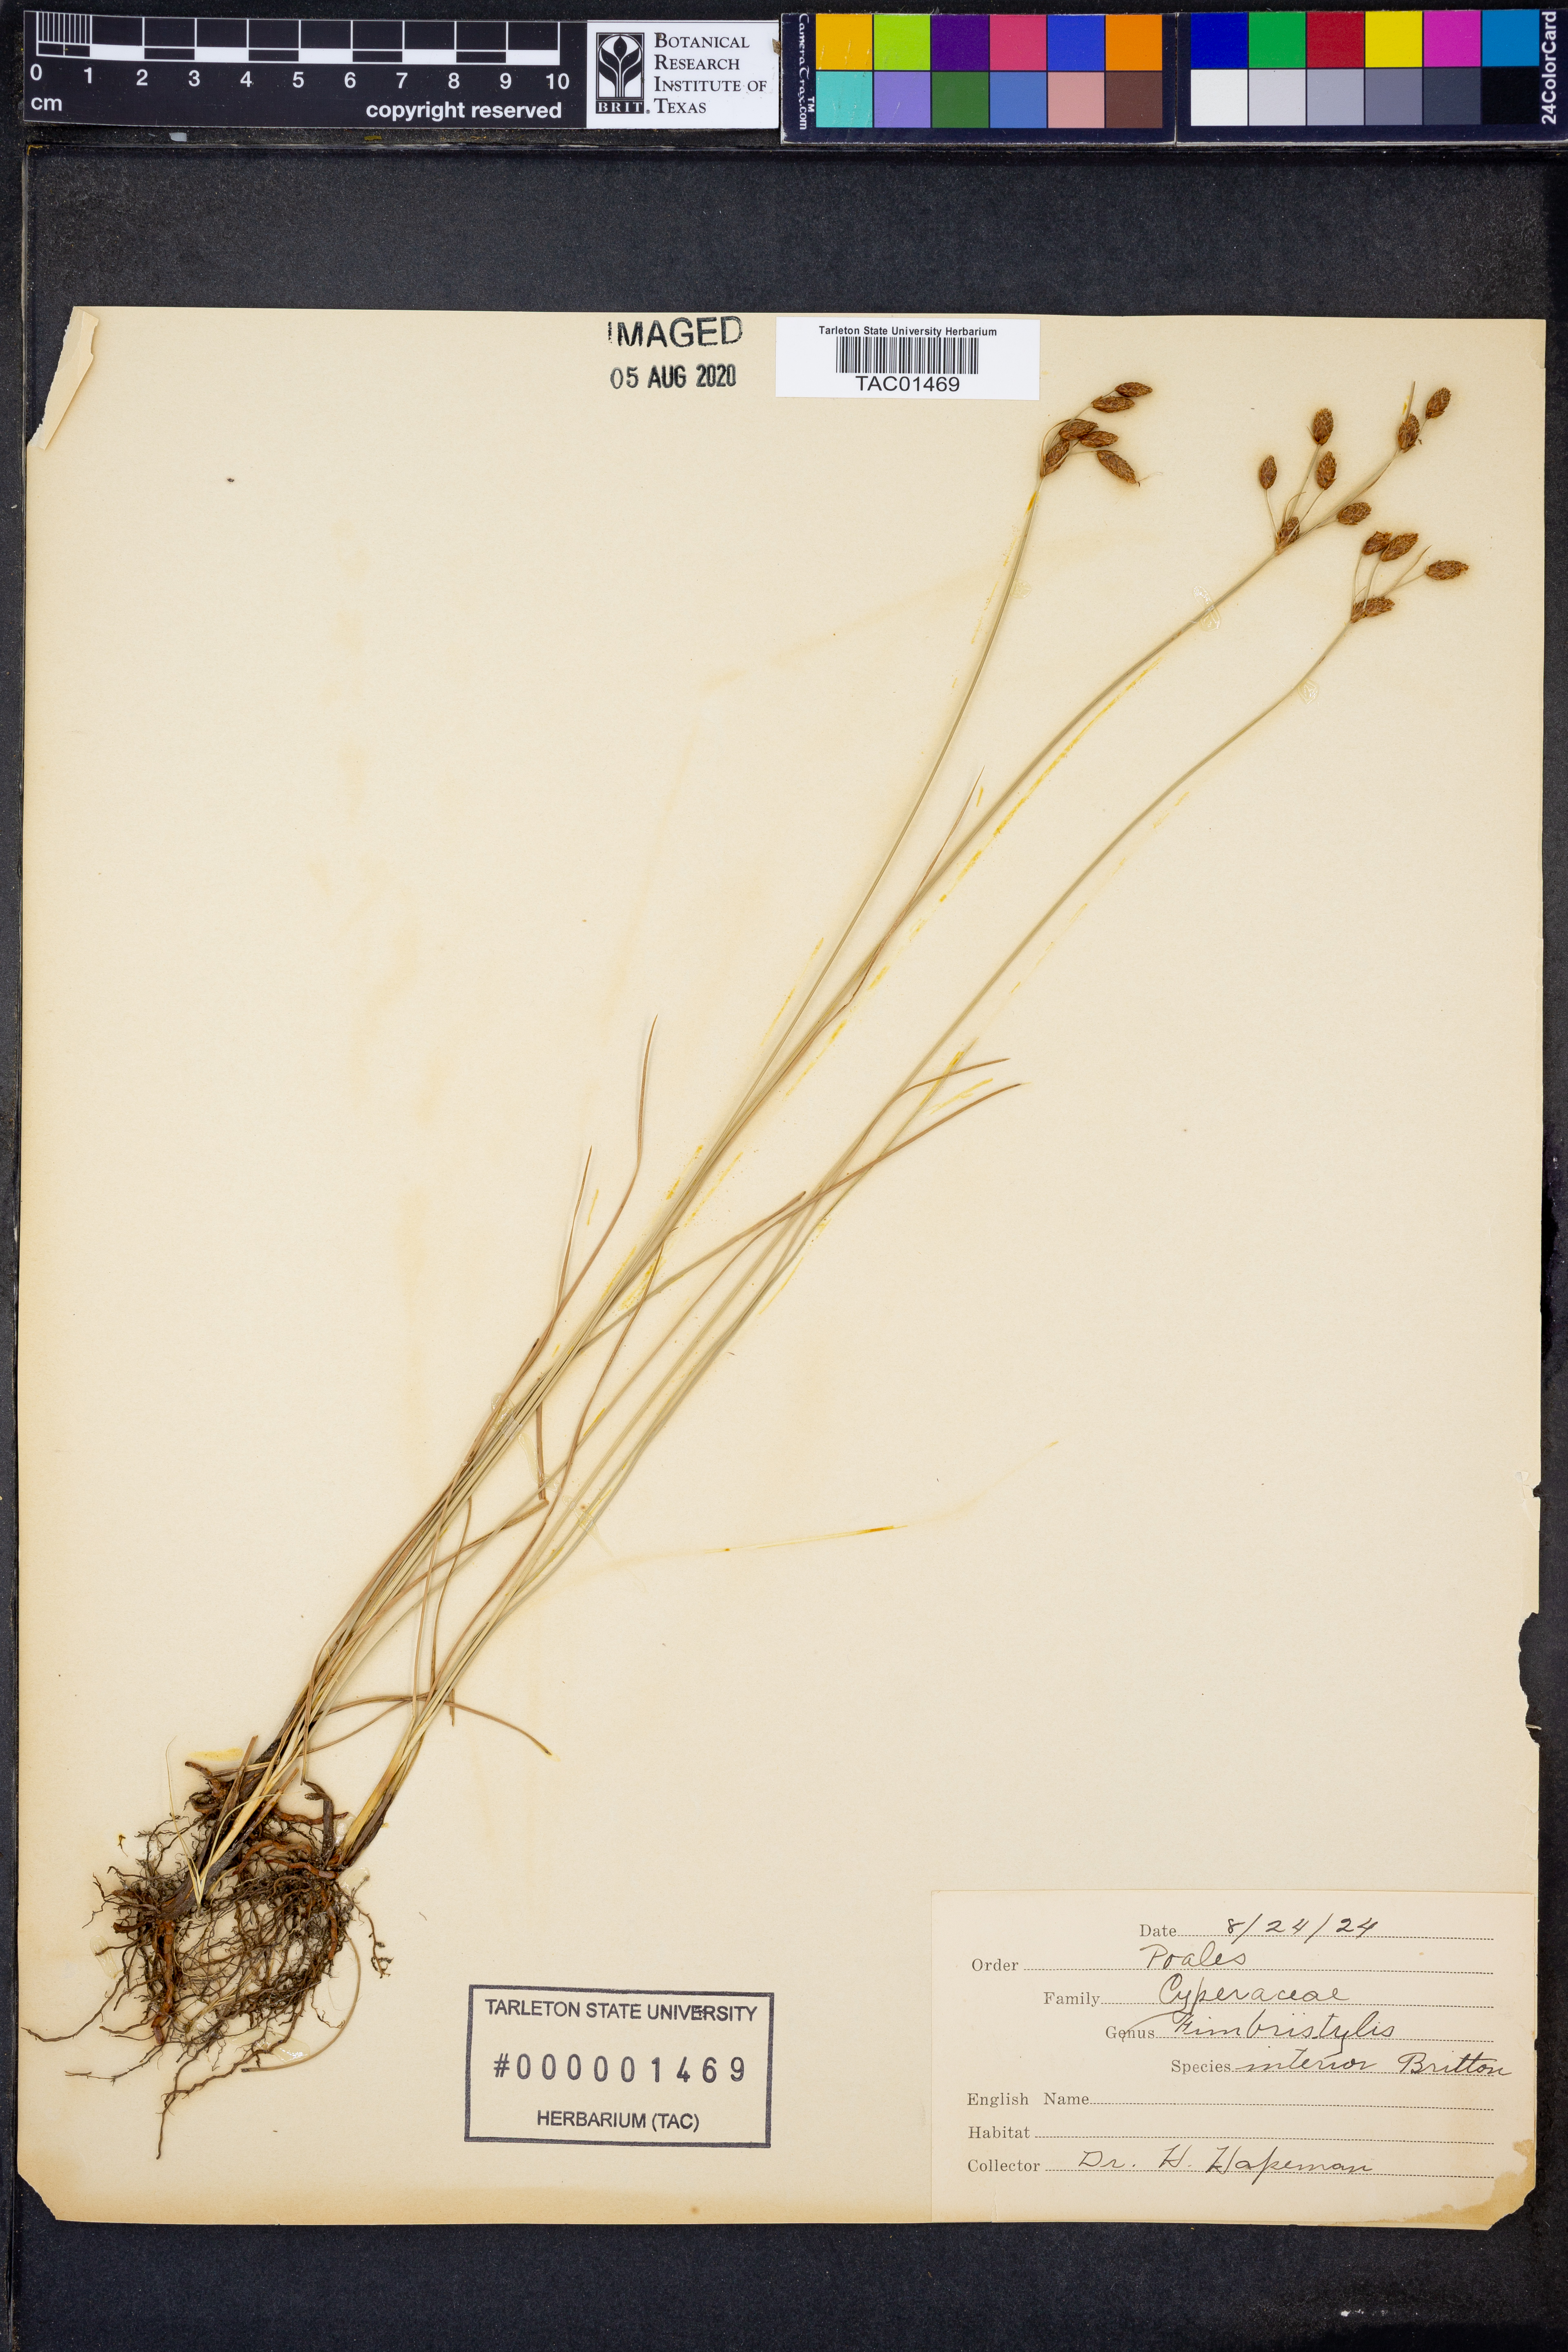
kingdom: Plantae
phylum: Tracheophyta
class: Liliopsida
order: Poales
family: Cyperaceae
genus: Fimbristylis
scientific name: Fimbristylis puberula
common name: Hairy fimbristylis
